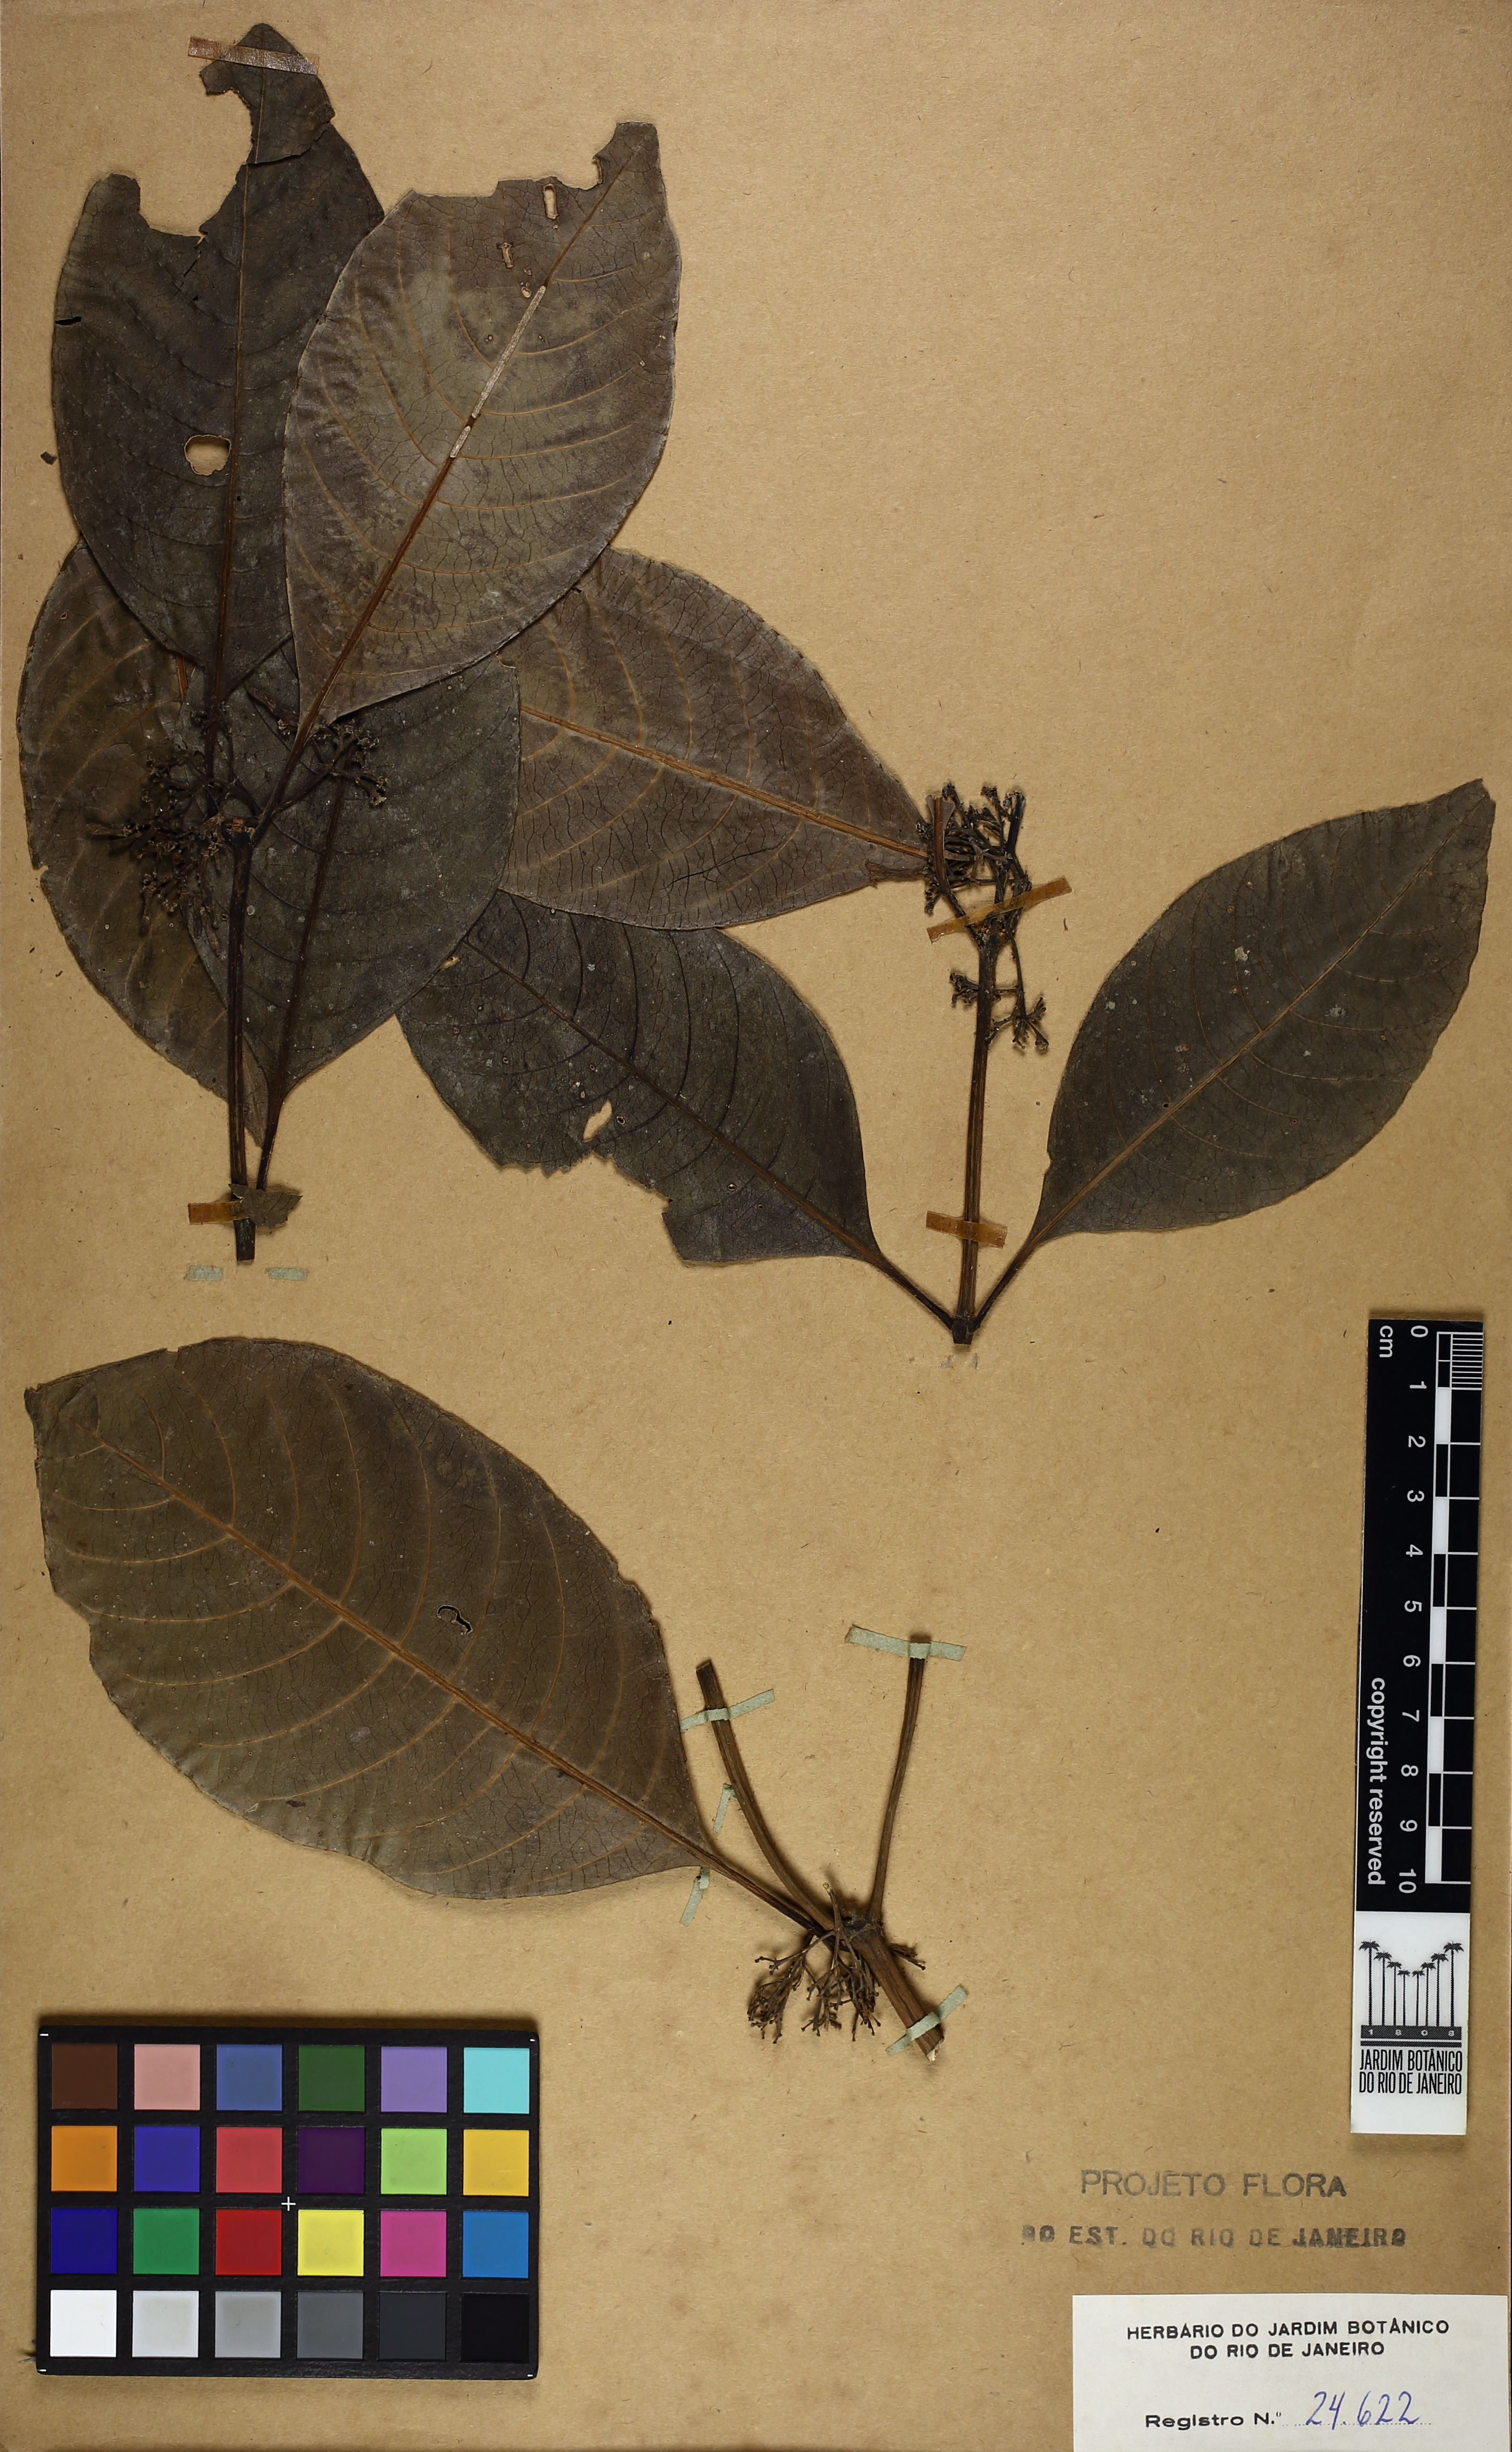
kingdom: Plantae
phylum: Tracheophyta
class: Magnoliopsida
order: Gentianales
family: Rubiaceae
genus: Psychotria
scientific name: Psychotria pallens
